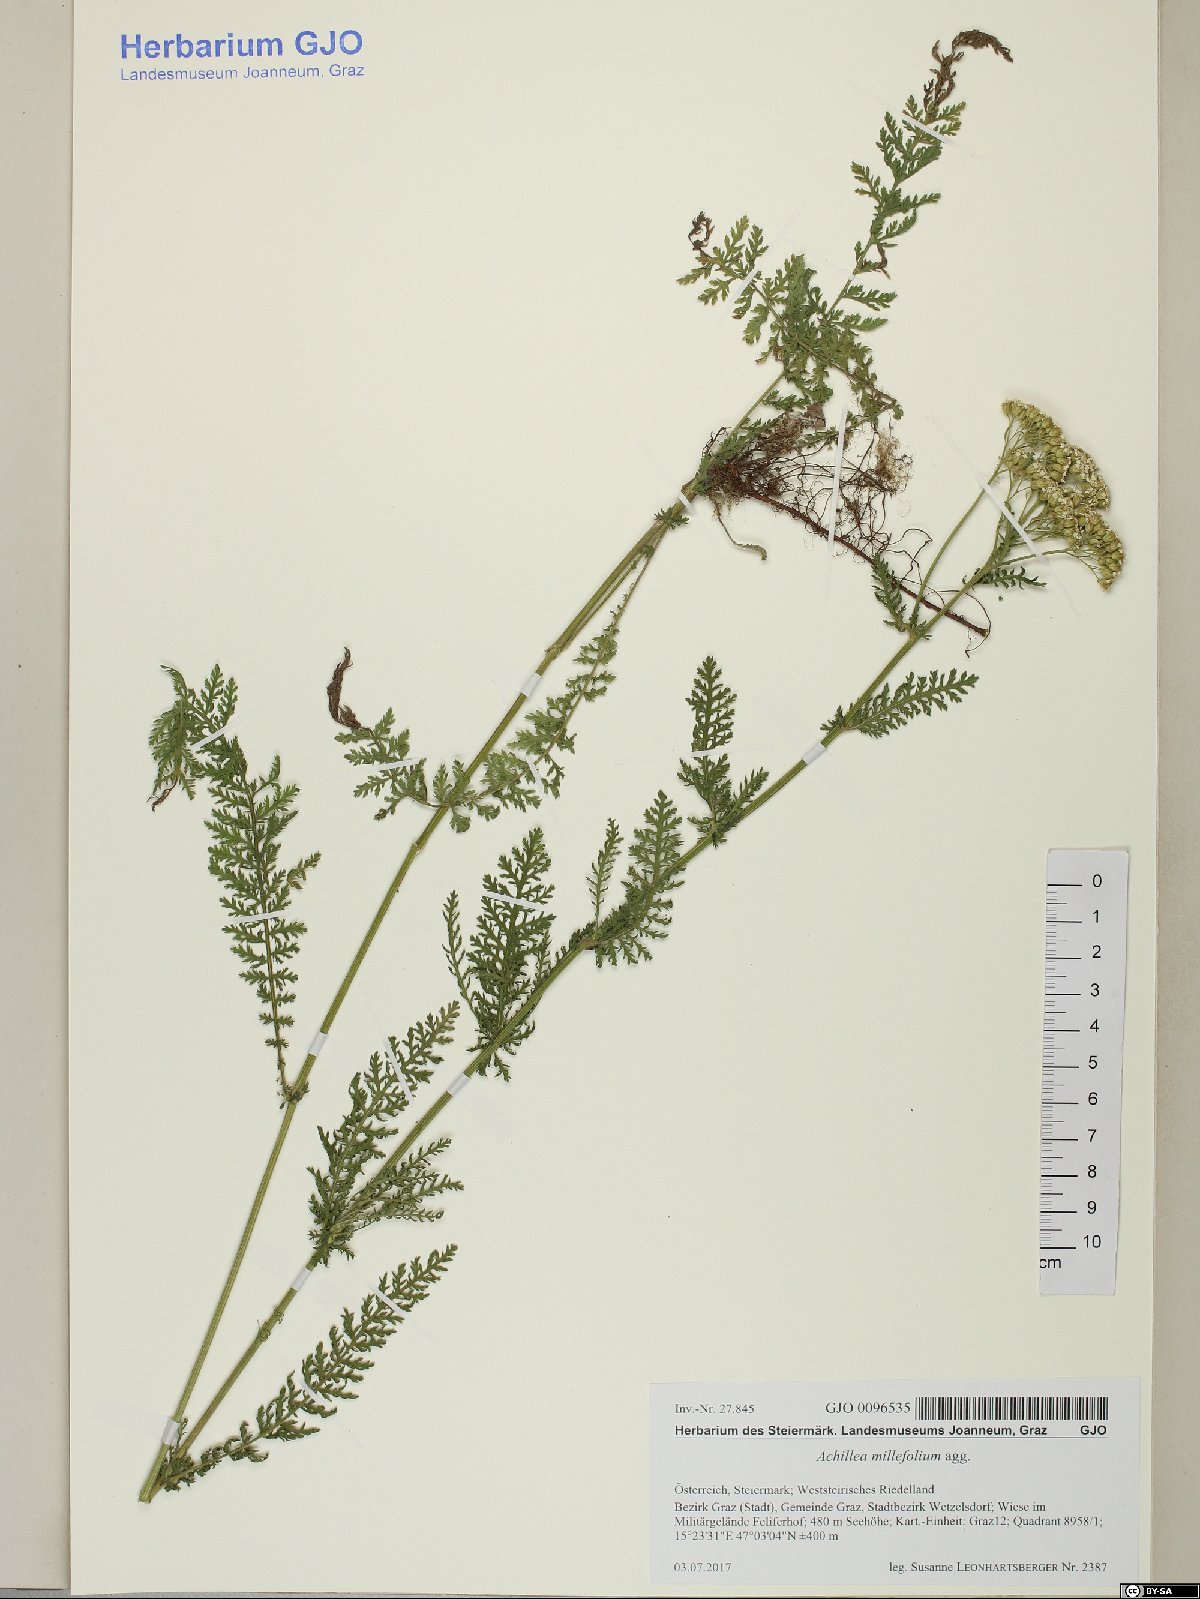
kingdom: Plantae
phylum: Tracheophyta
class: Magnoliopsida
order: Asterales
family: Asteraceae
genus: Achillea
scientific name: Achillea millefolium
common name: Yarrow
